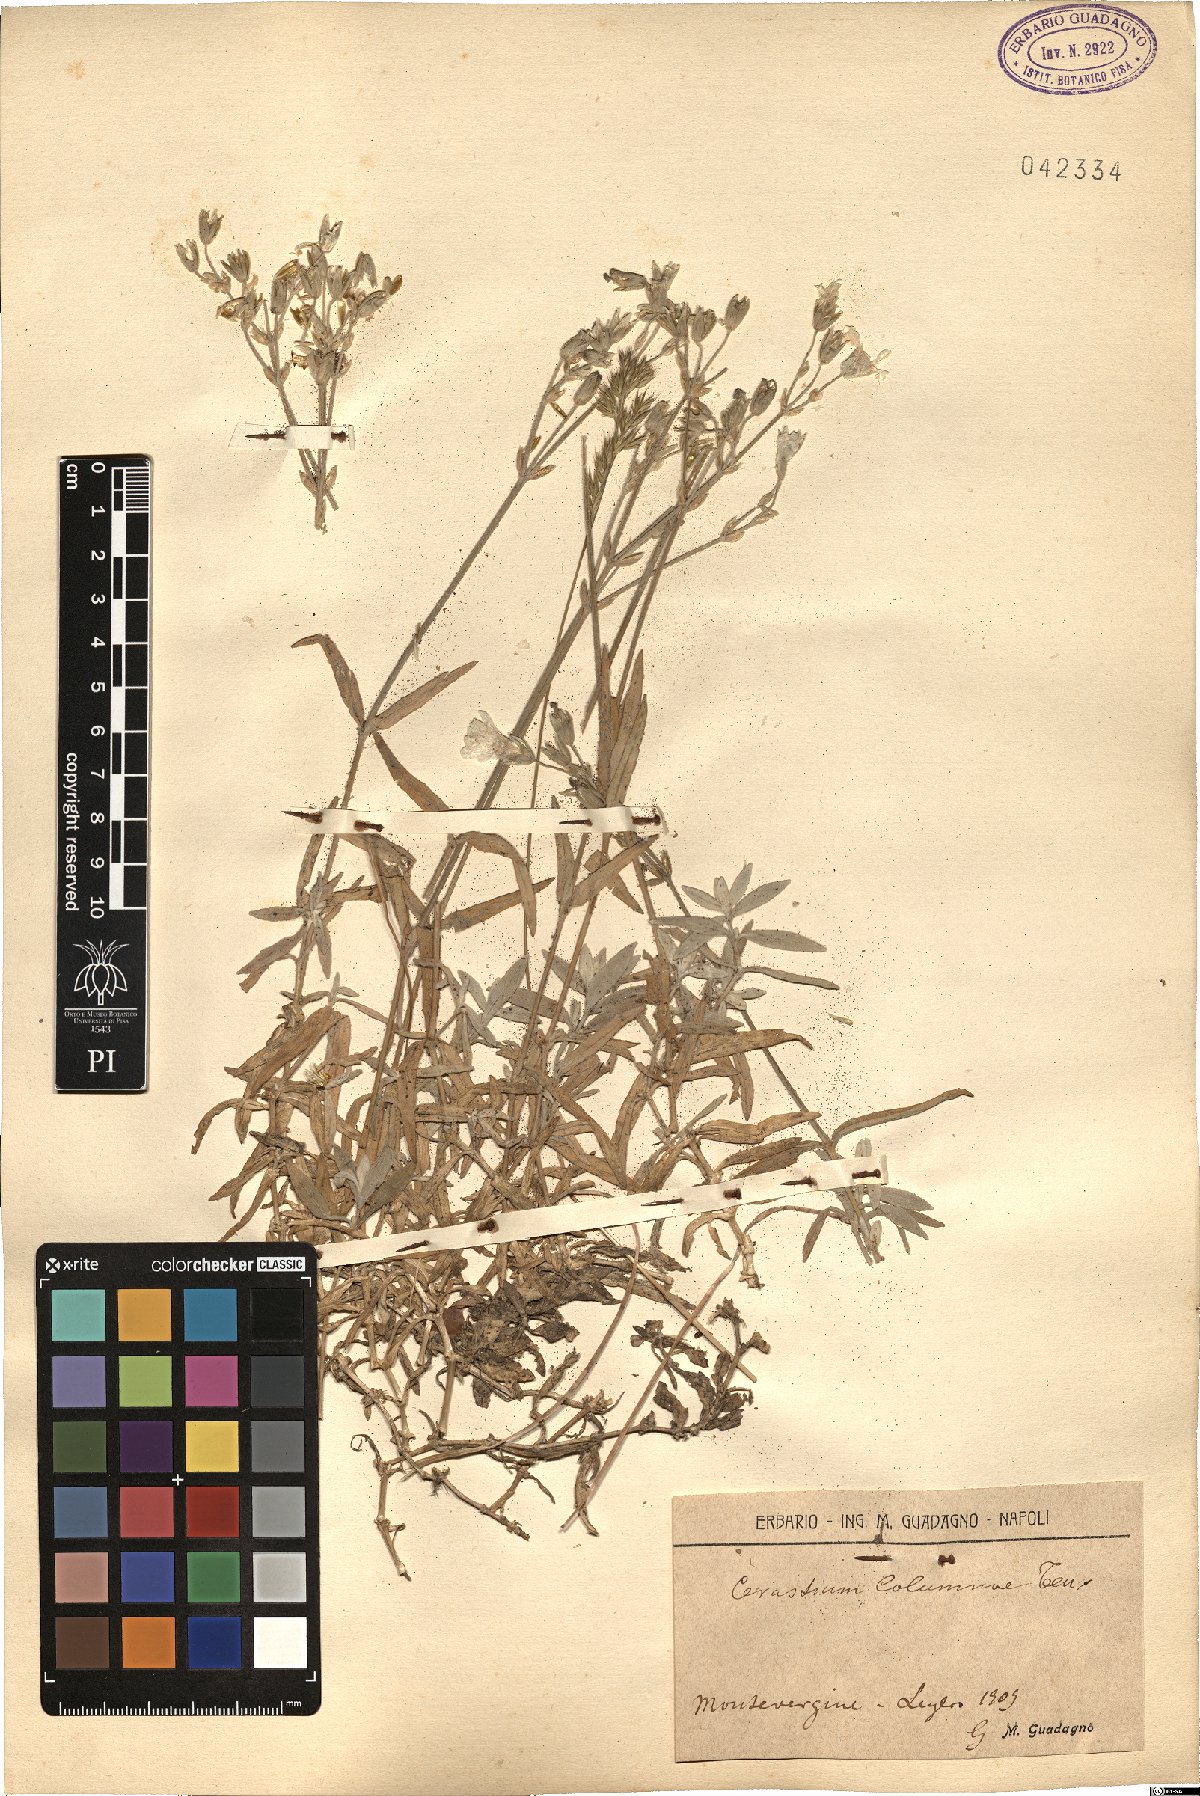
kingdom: Plantae
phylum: Tracheophyta
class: Magnoliopsida
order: Caryophyllales
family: Caryophyllaceae
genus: Cerastium
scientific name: Cerastium tomentosum
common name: Snow-in-summer
